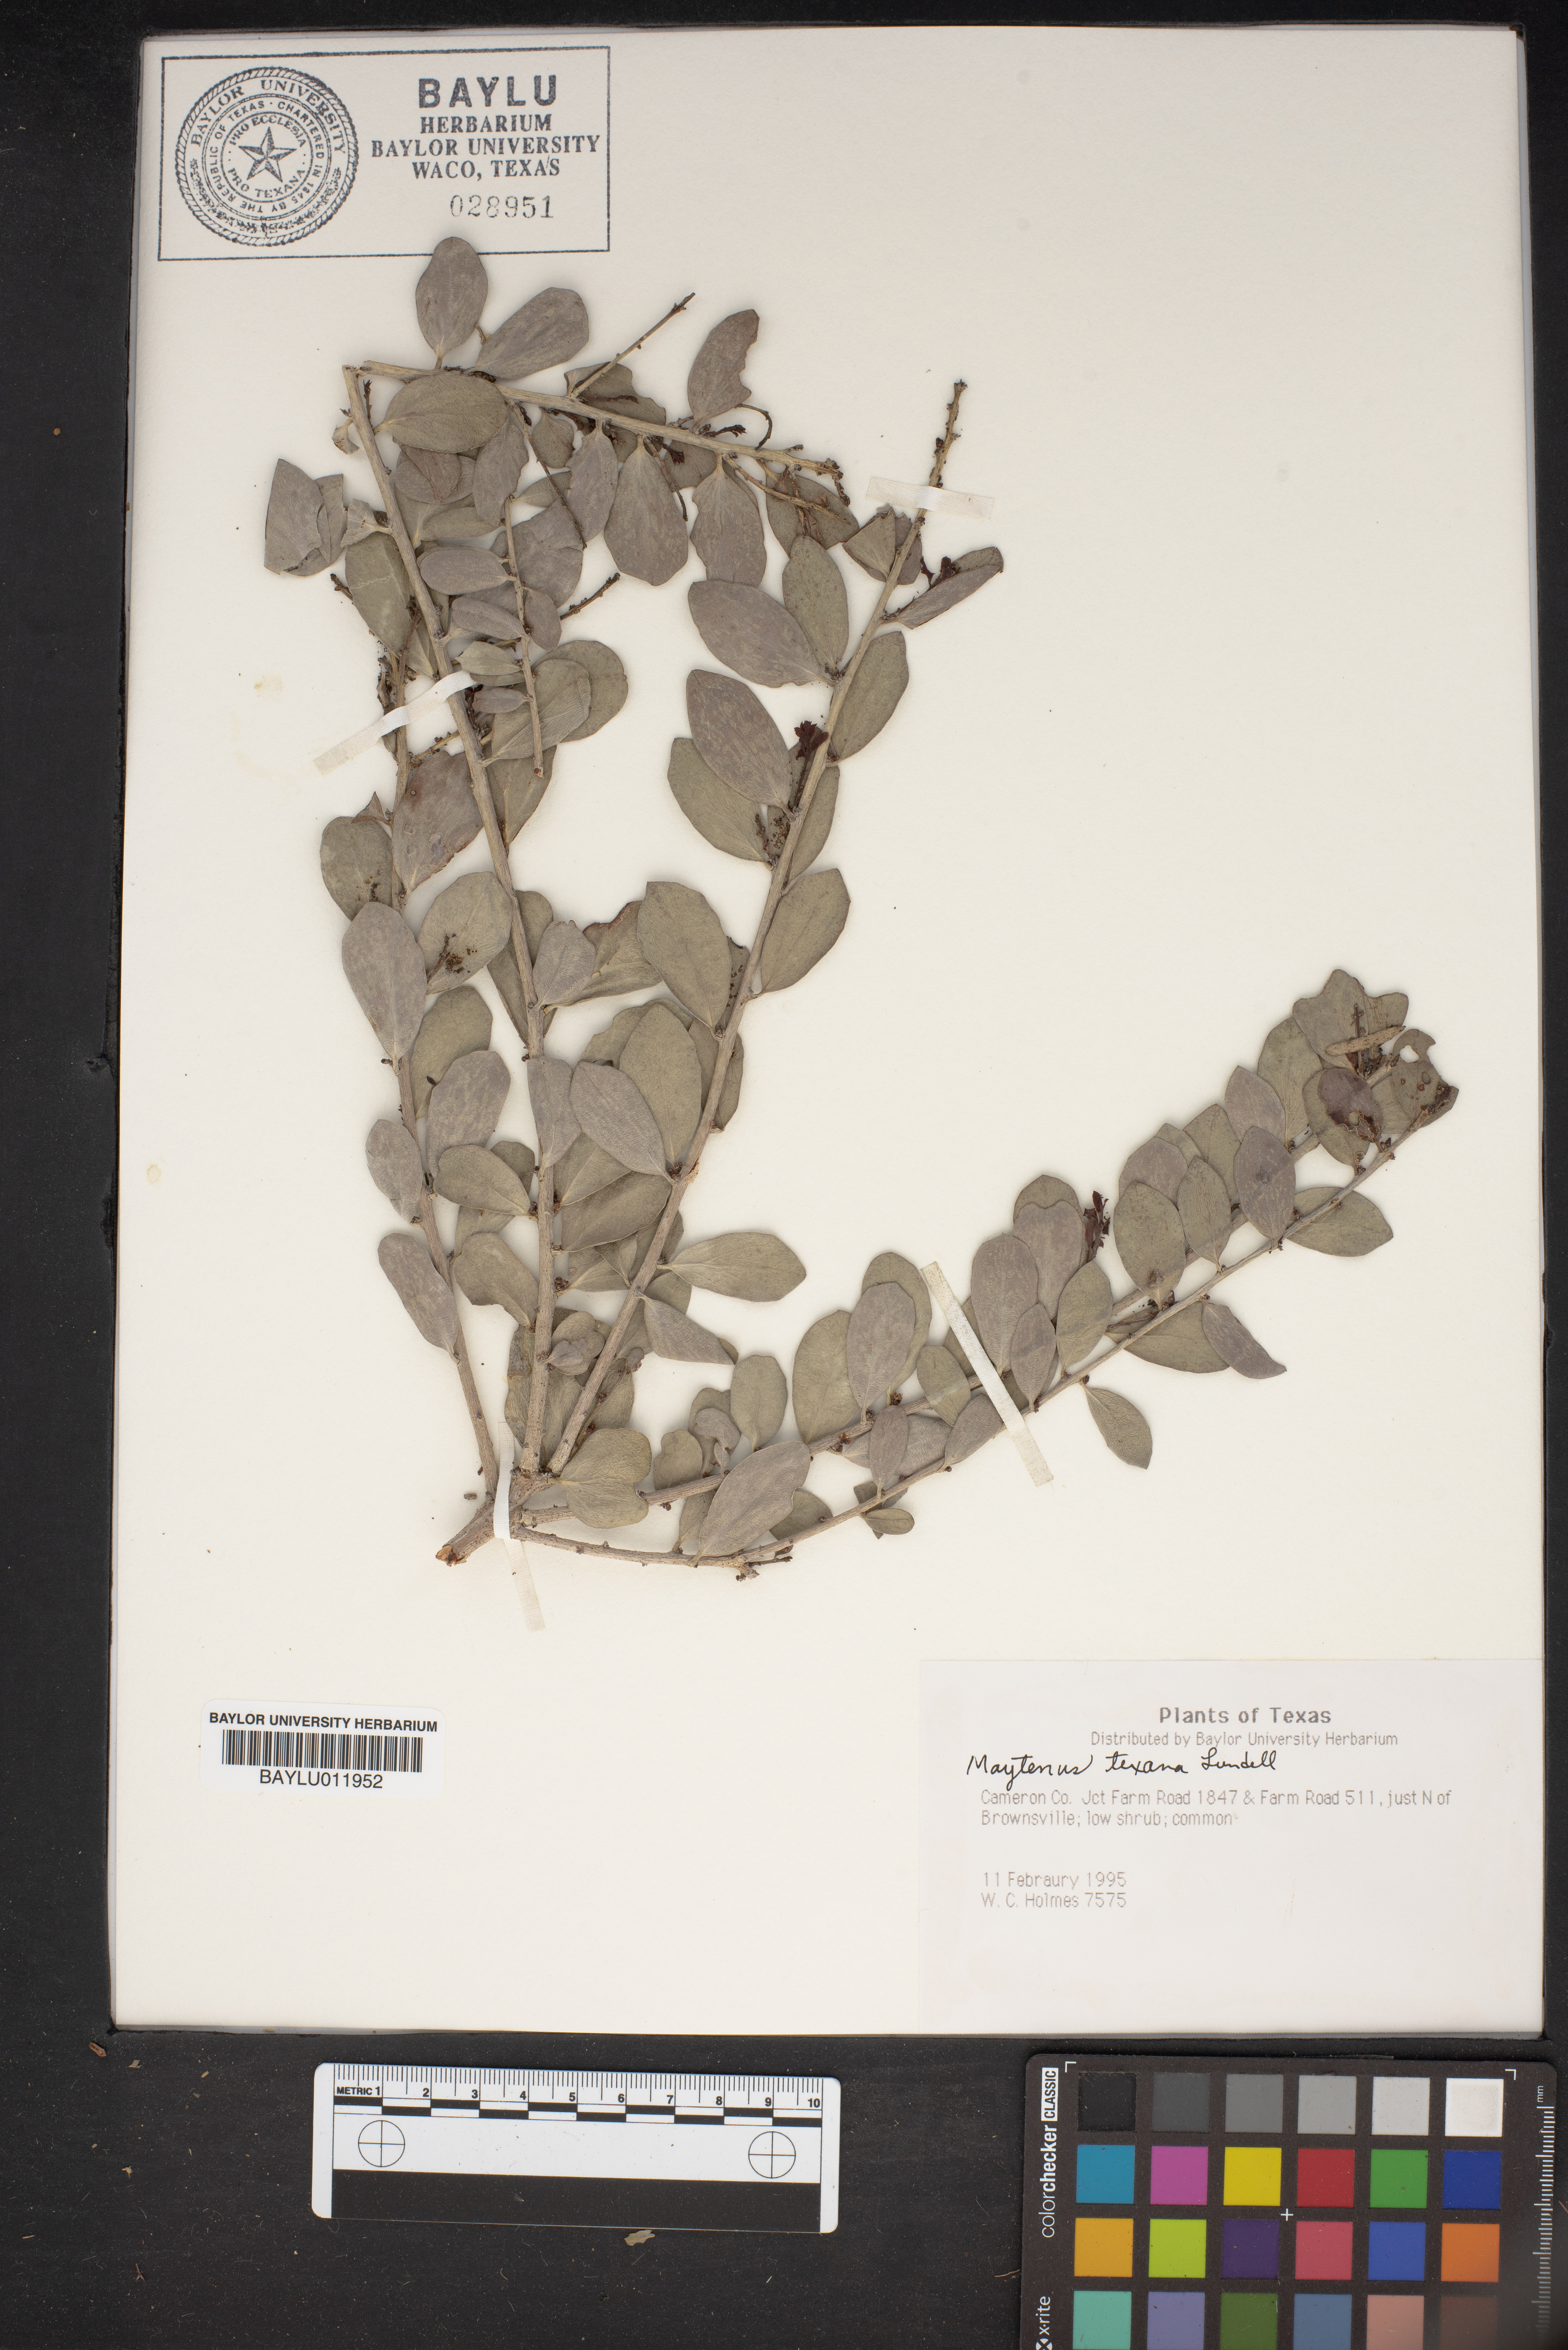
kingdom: Plantae
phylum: Tracheophyta
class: Magnoliopsida
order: Celastrales
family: Celastraceae
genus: Tricerma
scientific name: Tricerma phyllanthoides
